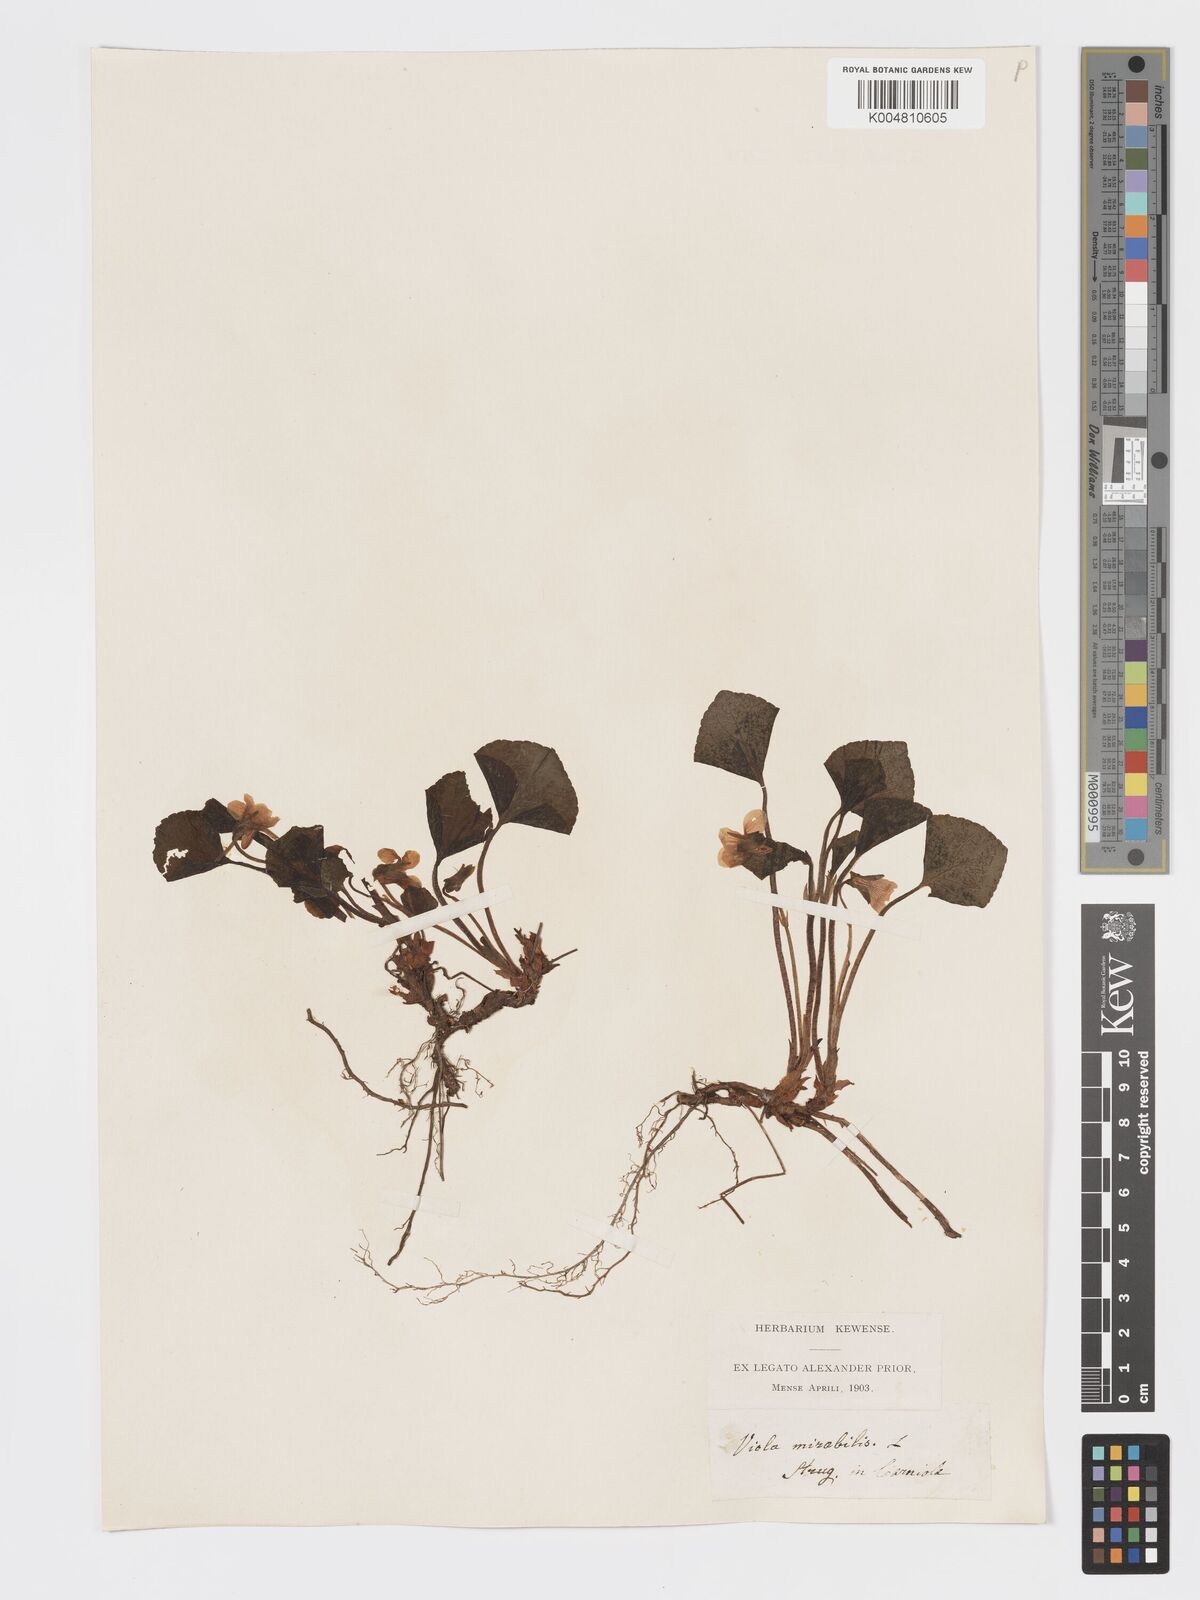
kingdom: Plantae
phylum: Tracheophyta
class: Magnoliopsida
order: Malpighiales
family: Violaceae
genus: Viola
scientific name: Viola mirabilis
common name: Wonder violet
